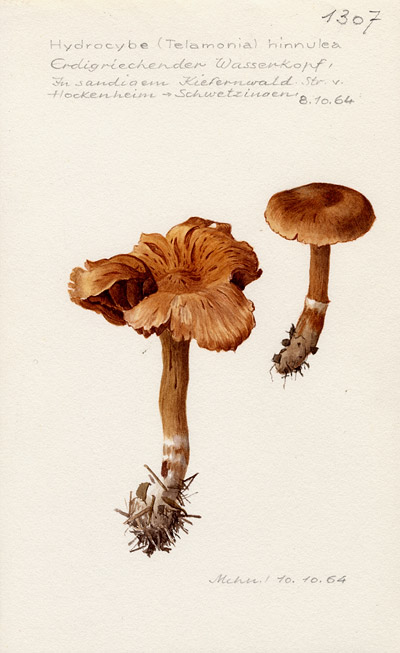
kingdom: Fungi
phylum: Basidiomycota
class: Agaricomycetes
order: Agaricales
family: Cortinariaceae
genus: Cortinarius
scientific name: Cortinarius hinnuleus
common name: Earthy webcap
